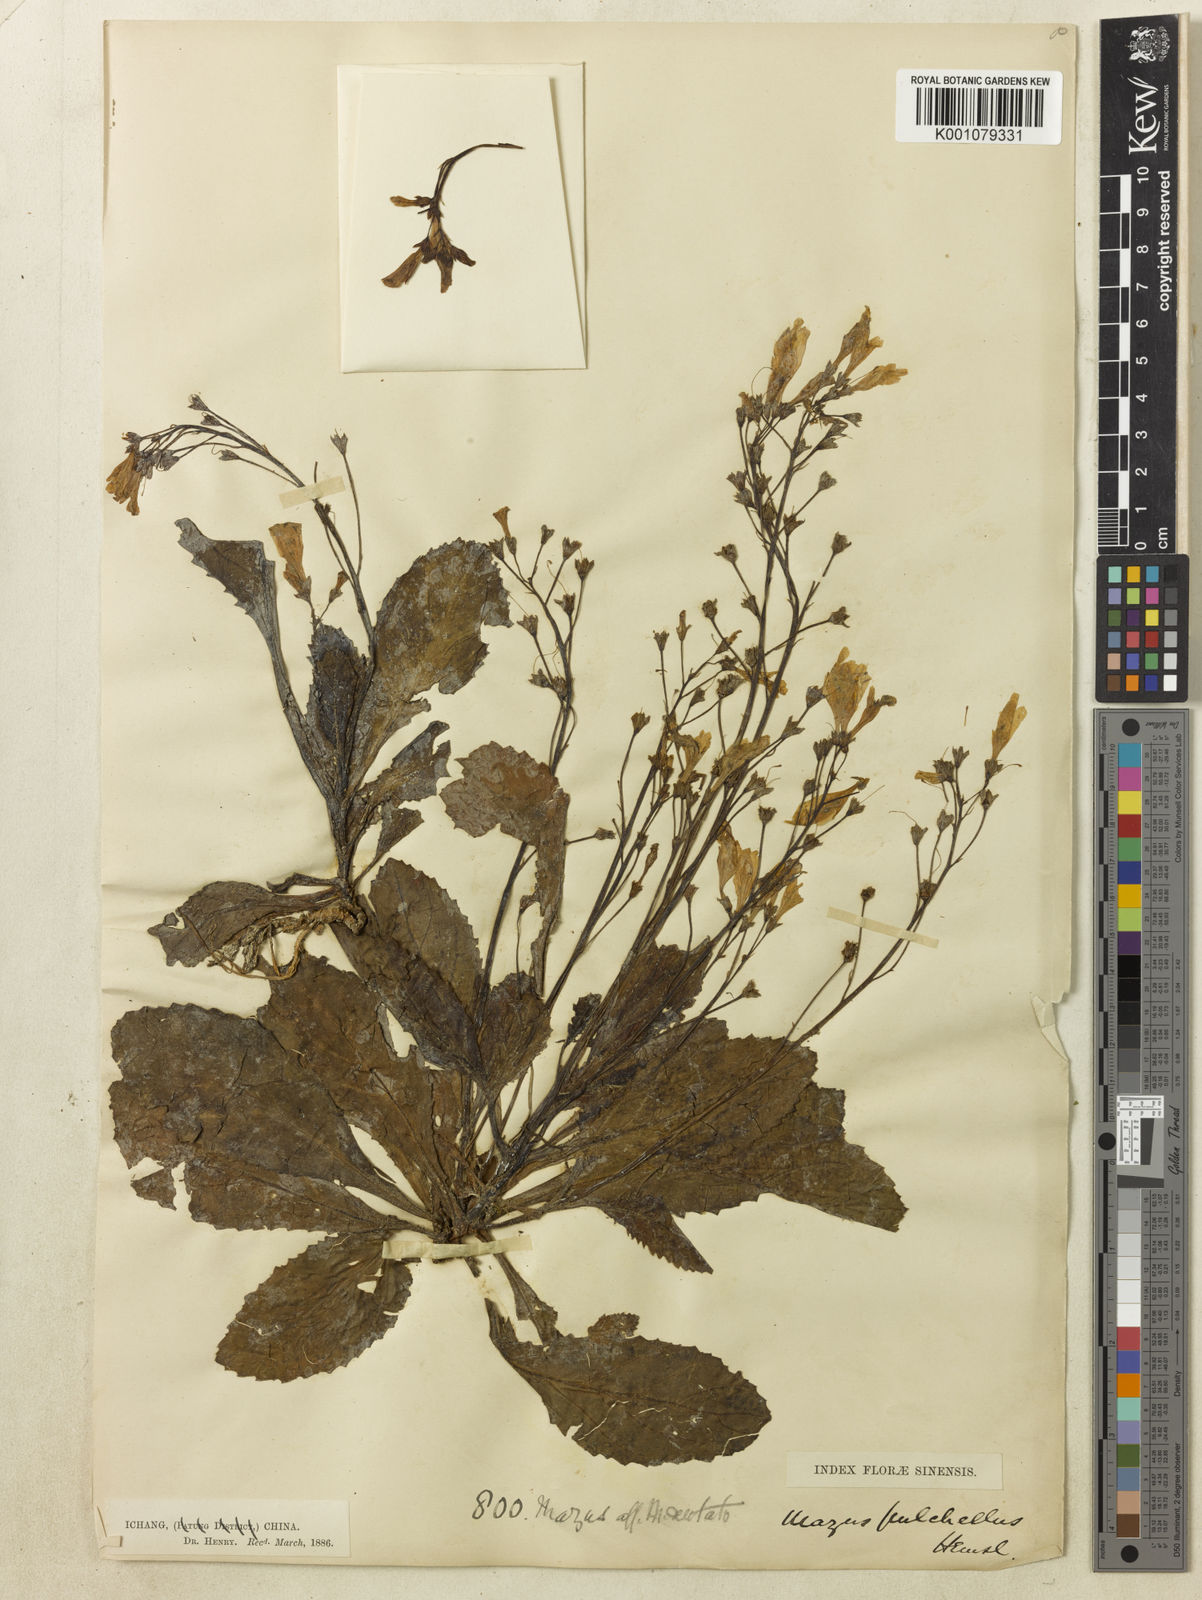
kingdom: Plantae
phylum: Tracheophyta
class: Magnoliopsida
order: Lamiales
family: Mazaceae
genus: Mazus
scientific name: Mazus pulchellus
